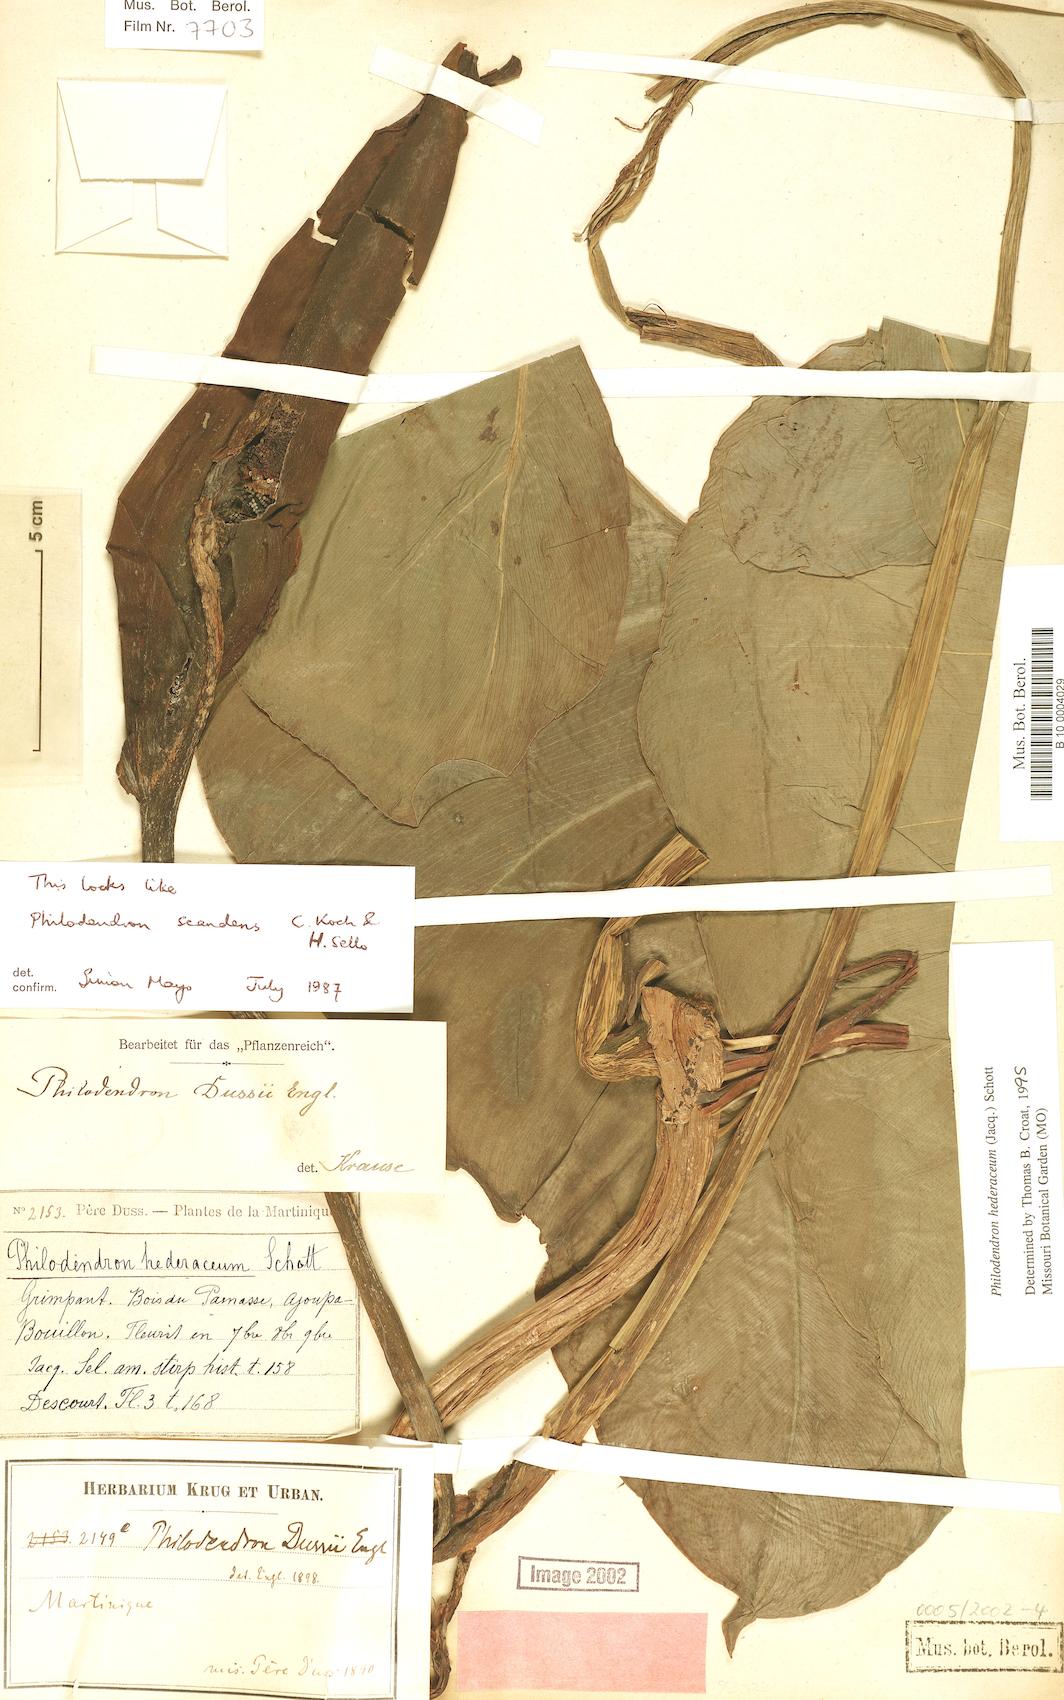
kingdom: Plantae
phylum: Tracheophyta
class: Liliopsida
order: Alismatales
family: Araceae
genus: Philodendron
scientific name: Philodendron hederaceum
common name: Vilevine
